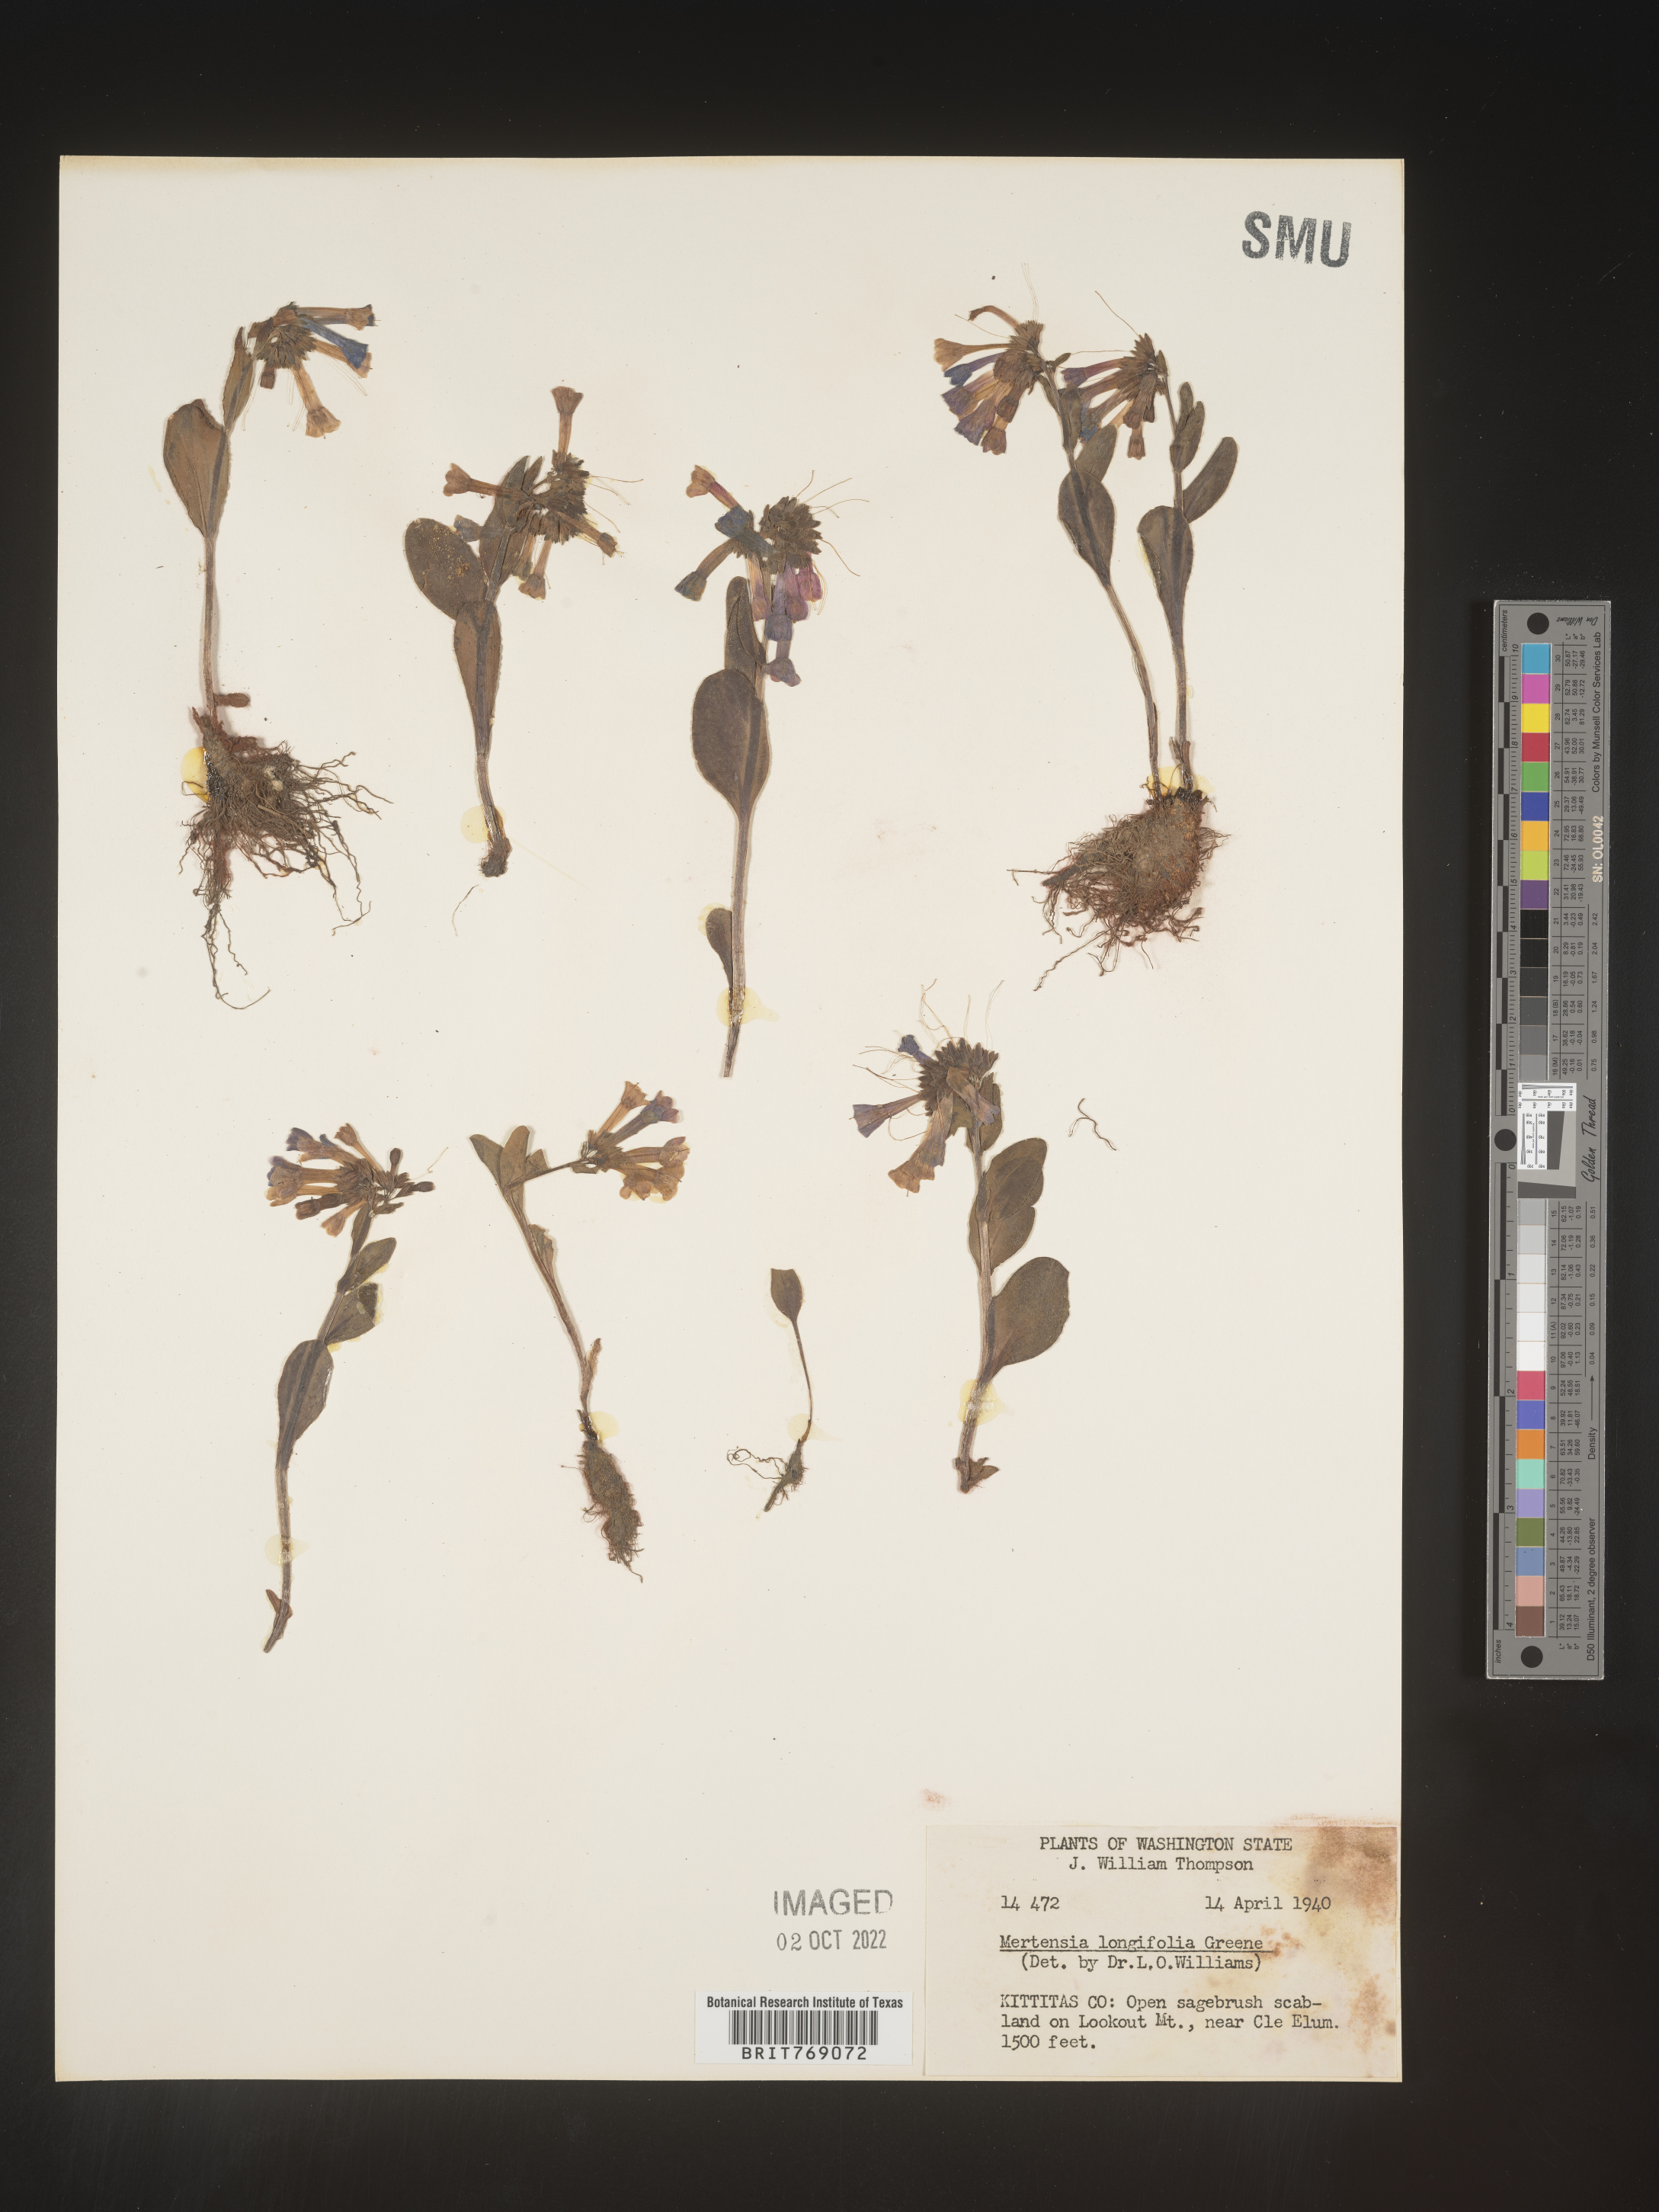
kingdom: Plantae
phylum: Tracheophyta
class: Magnoliopsida
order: Boraginales
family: Boraginaceae
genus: Mertensia
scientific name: Mertensia
